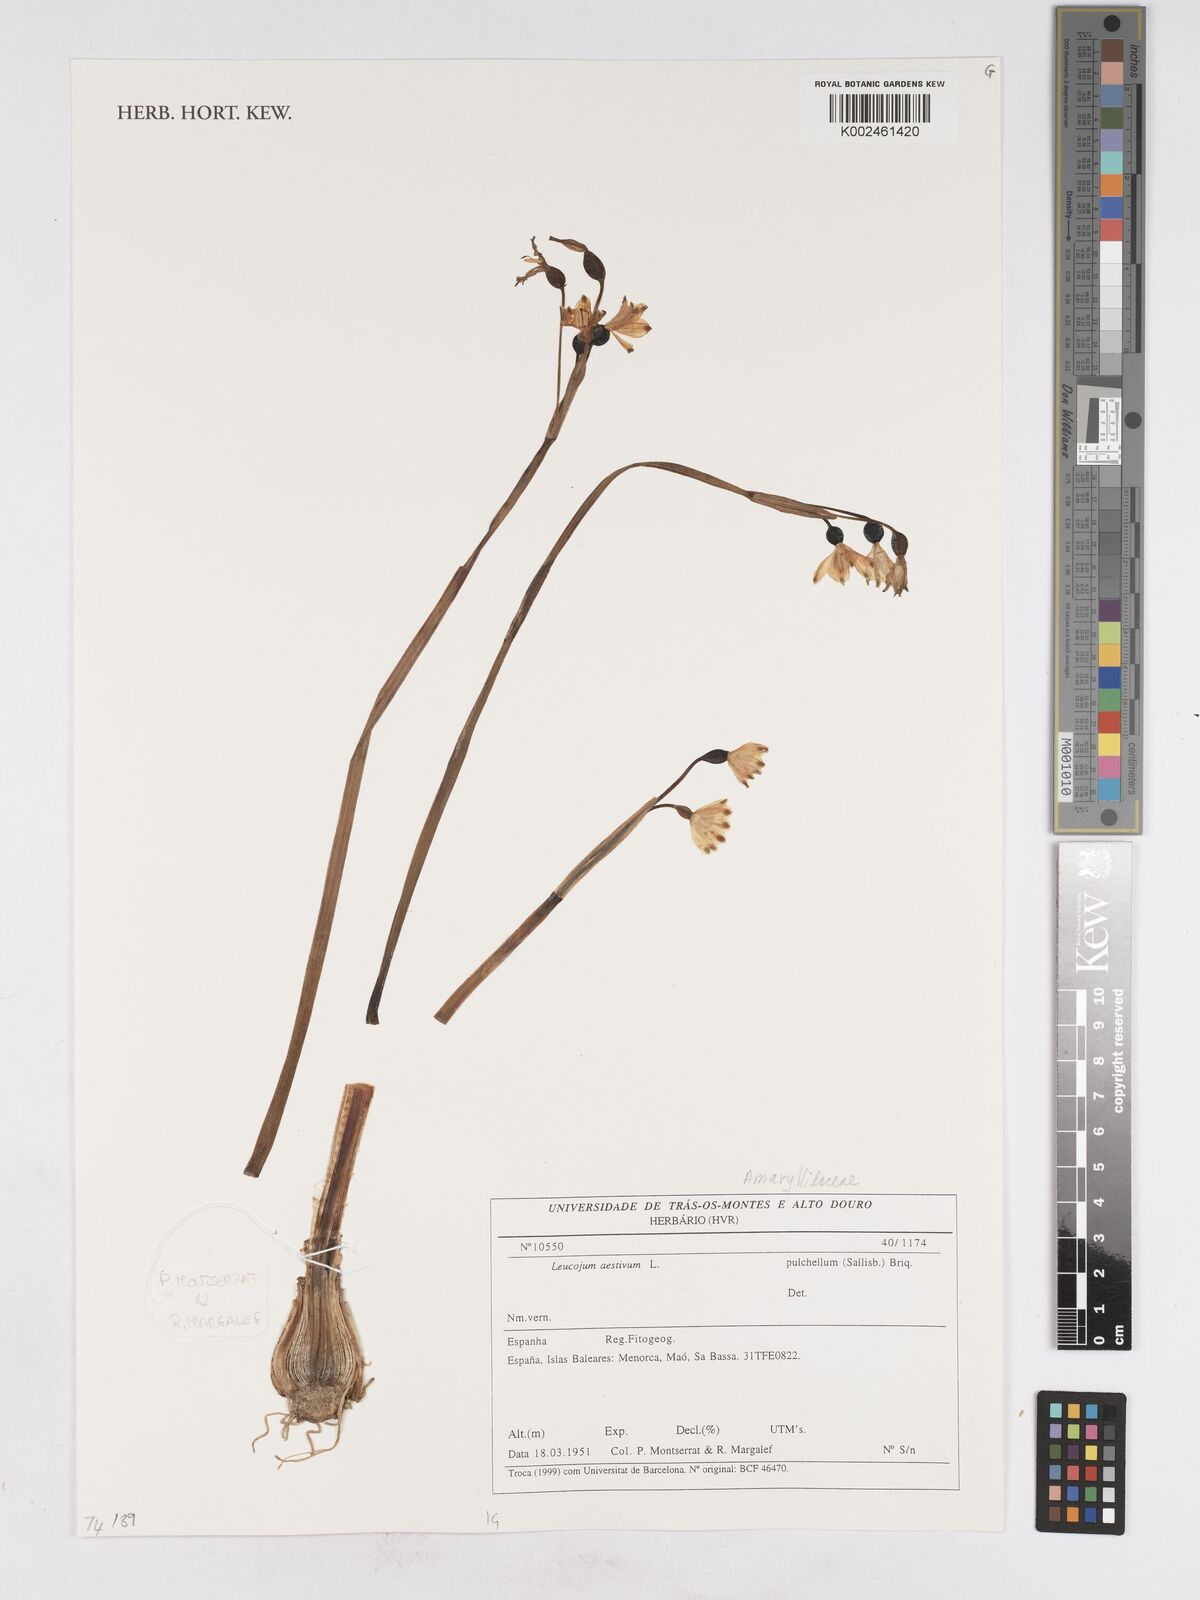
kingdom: Plantae
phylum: Tracheophyta
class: Liliopsida
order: Asparagales
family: Amaryllidaceae
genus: Leucojum
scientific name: Leucojum aestivum
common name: Summer snowflake
